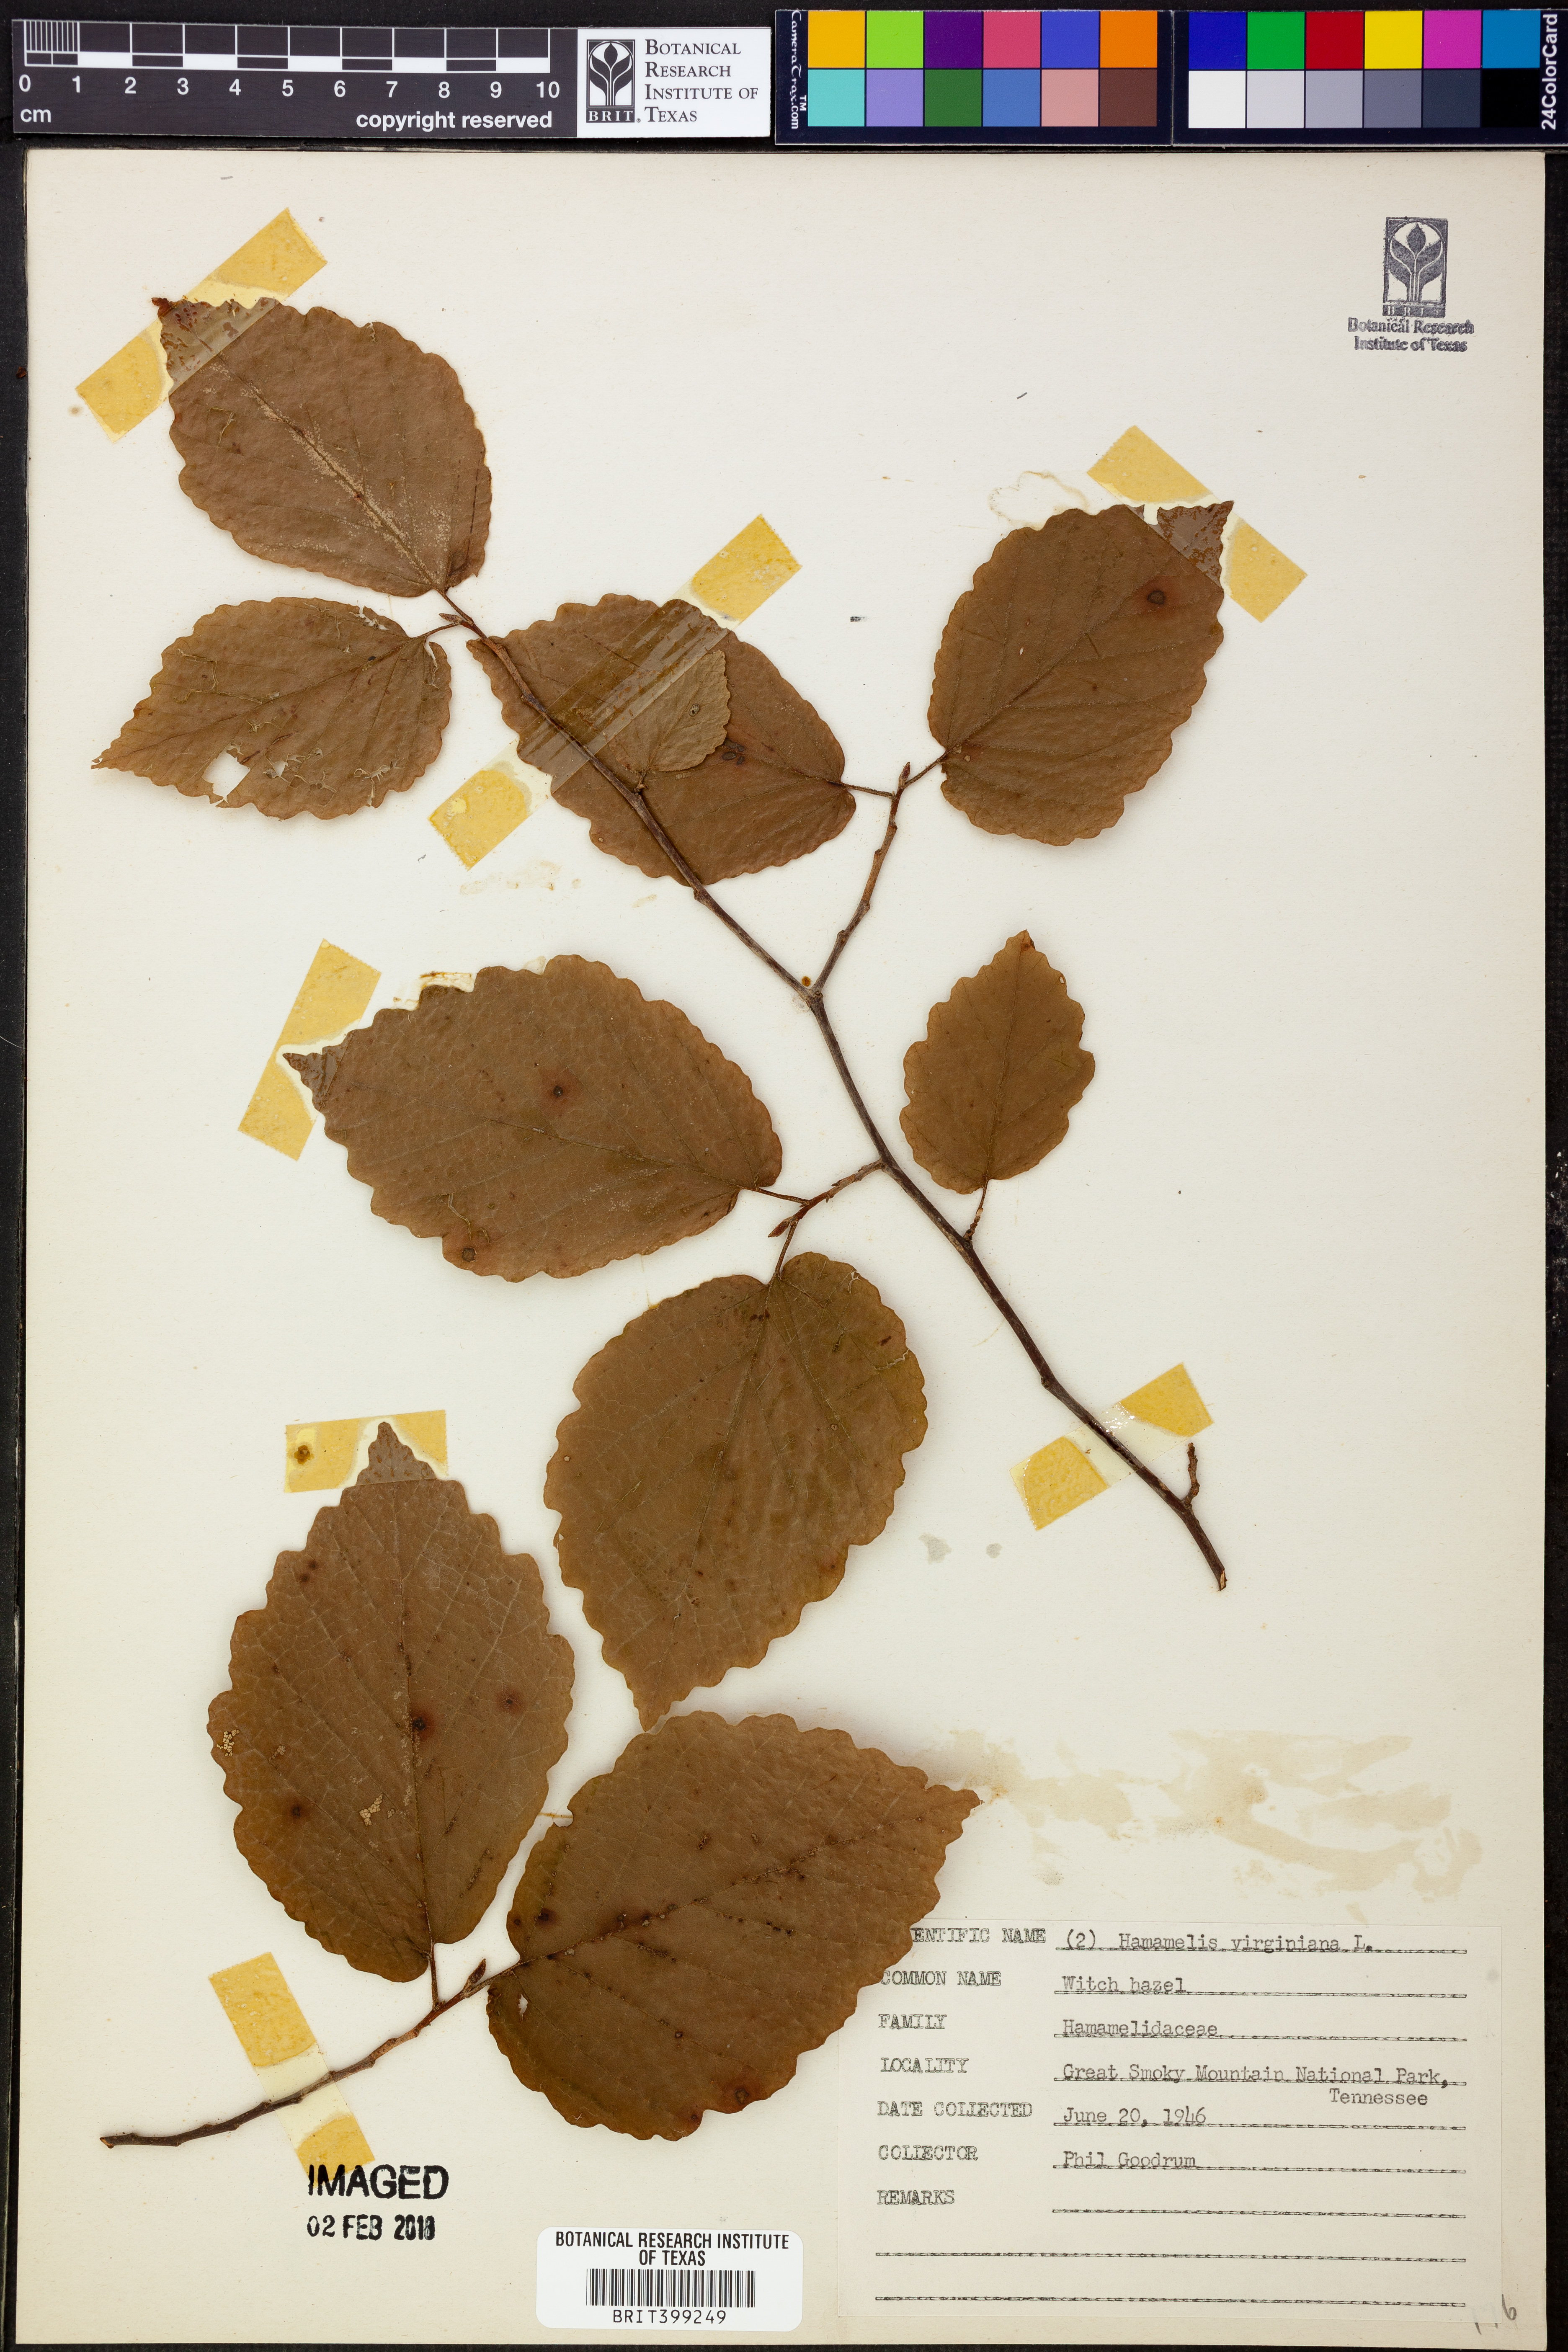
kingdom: Plantae
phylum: Tracheophyta
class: Magnoliopsida
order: Saxifragales
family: Hamamelidaceae
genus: Hamamelis
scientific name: Hamamelis virginiana
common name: Witch-hazel
